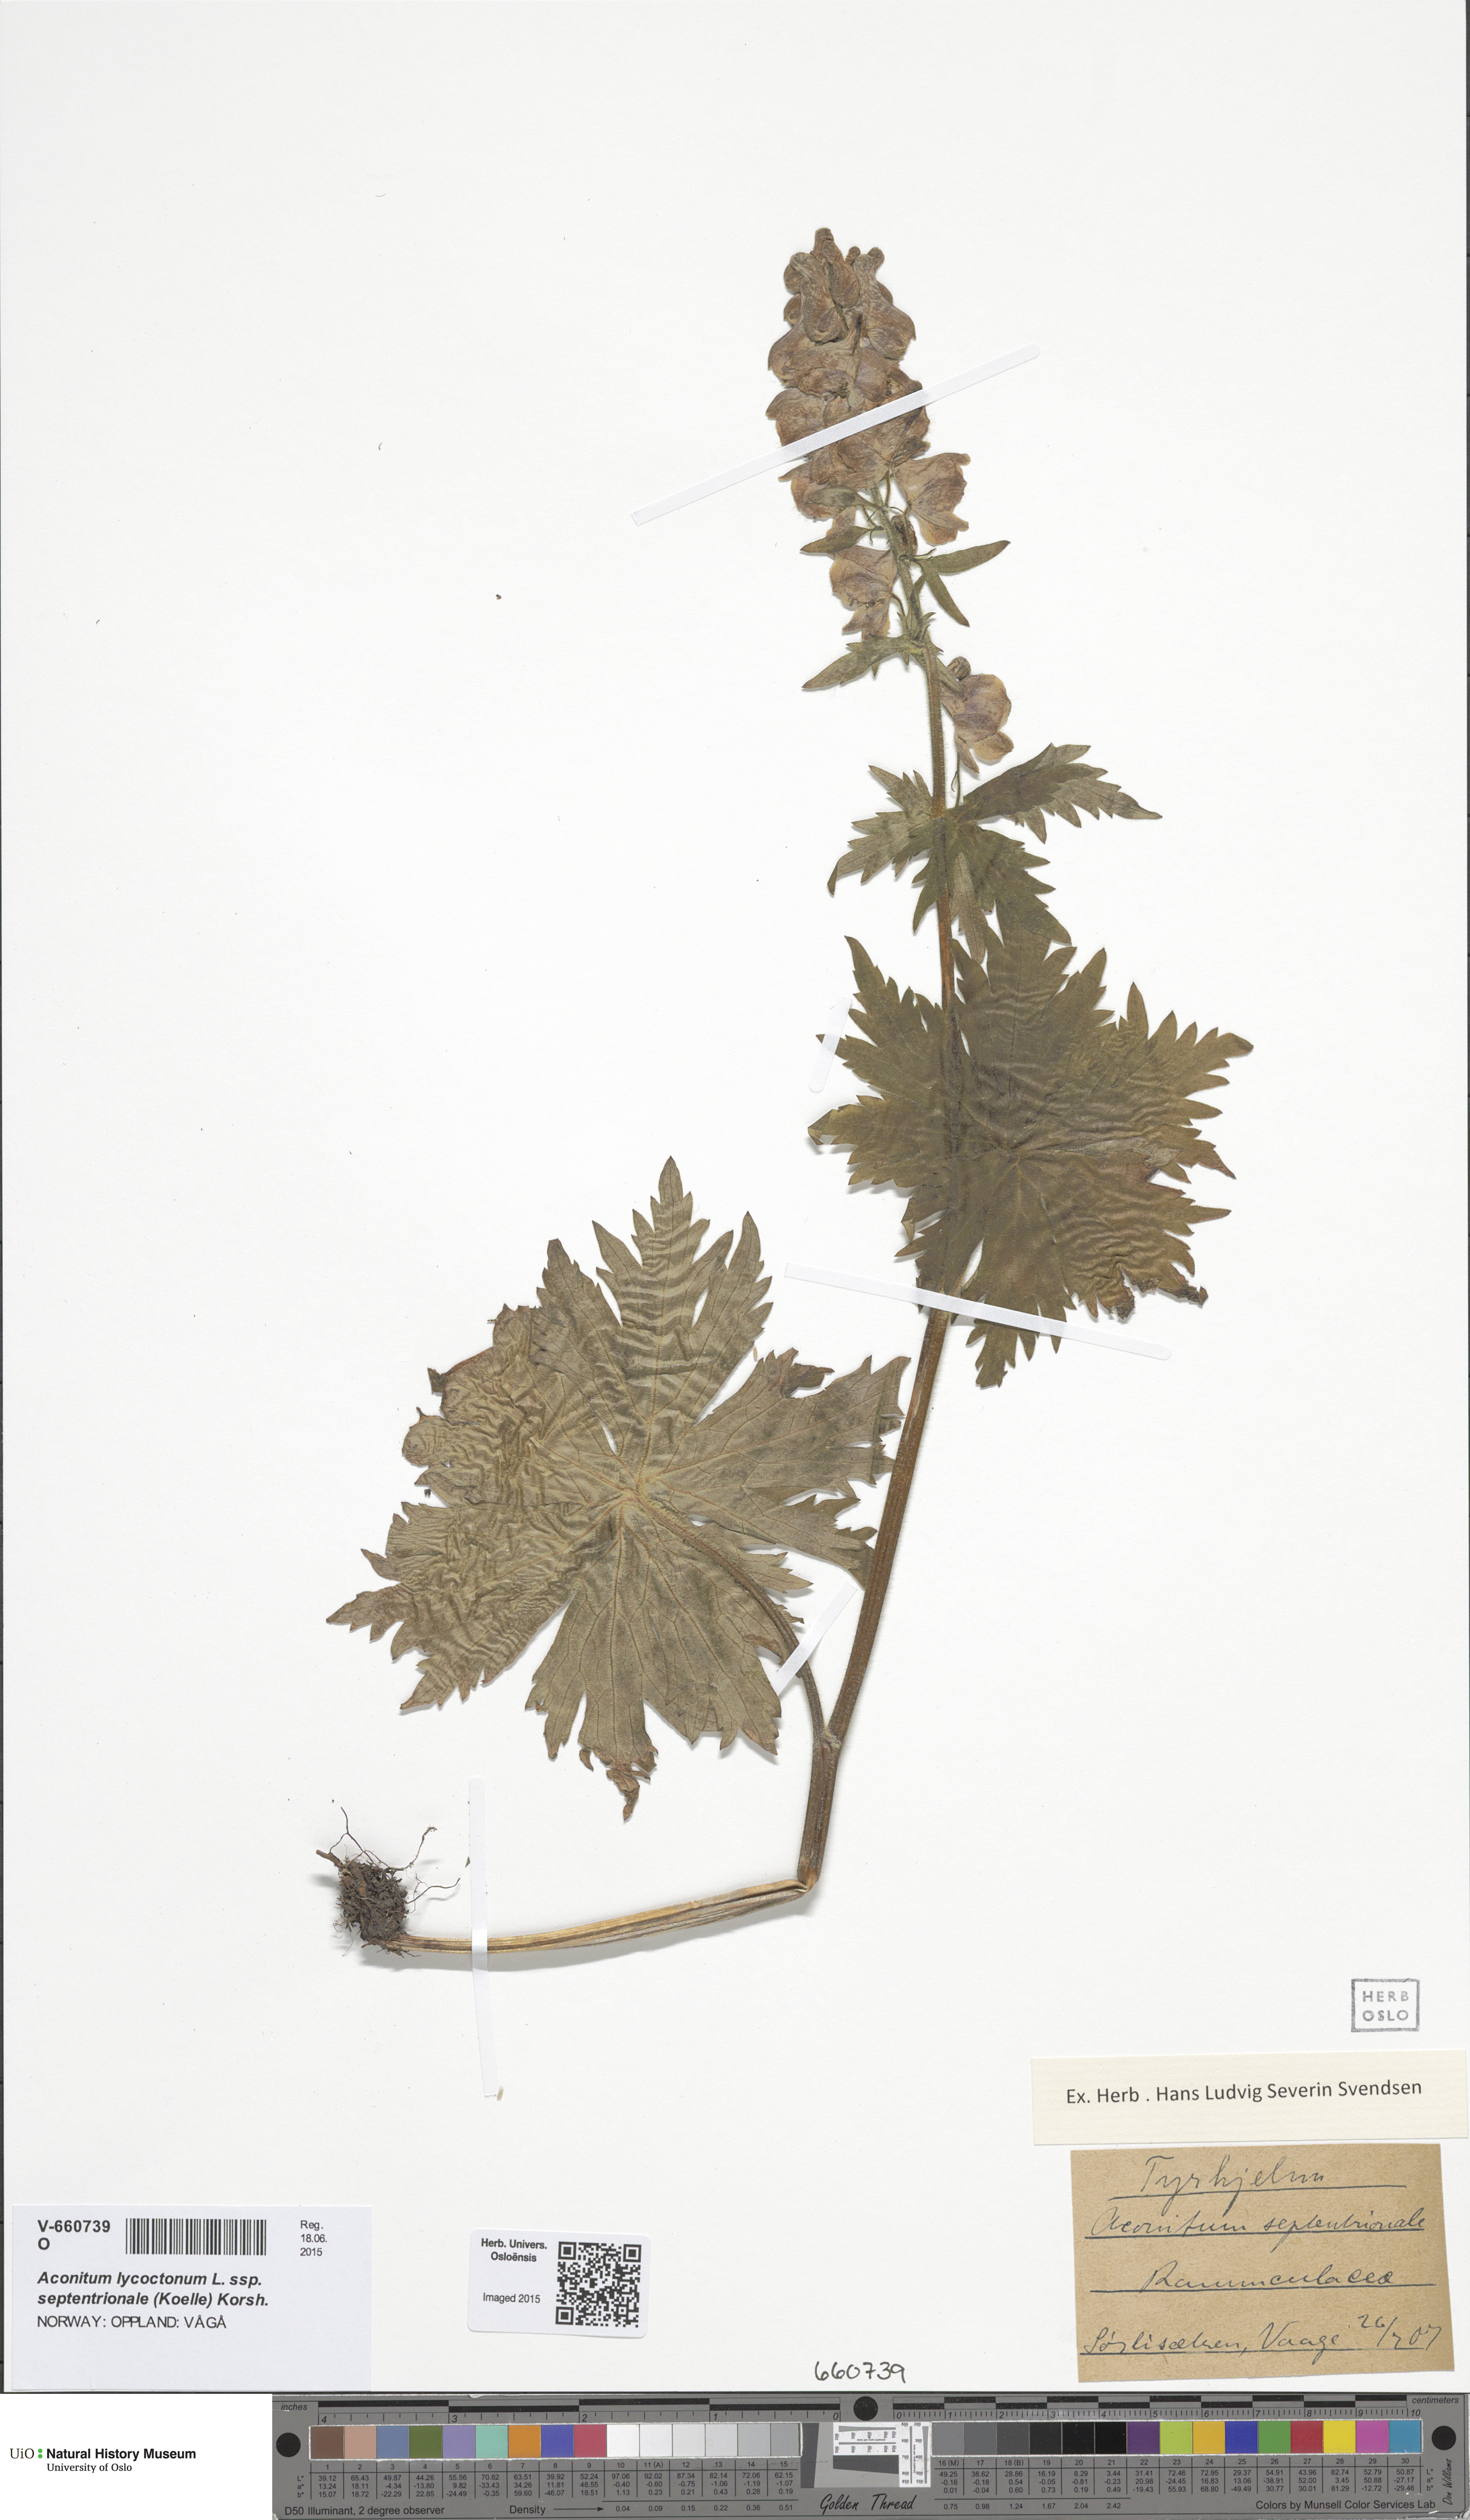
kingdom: Plantae
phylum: Tracheophyta
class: Magnoliopsida
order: Ranunculales
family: Ranunculaceae
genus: Aconitum
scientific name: Aconitum septentrionale
